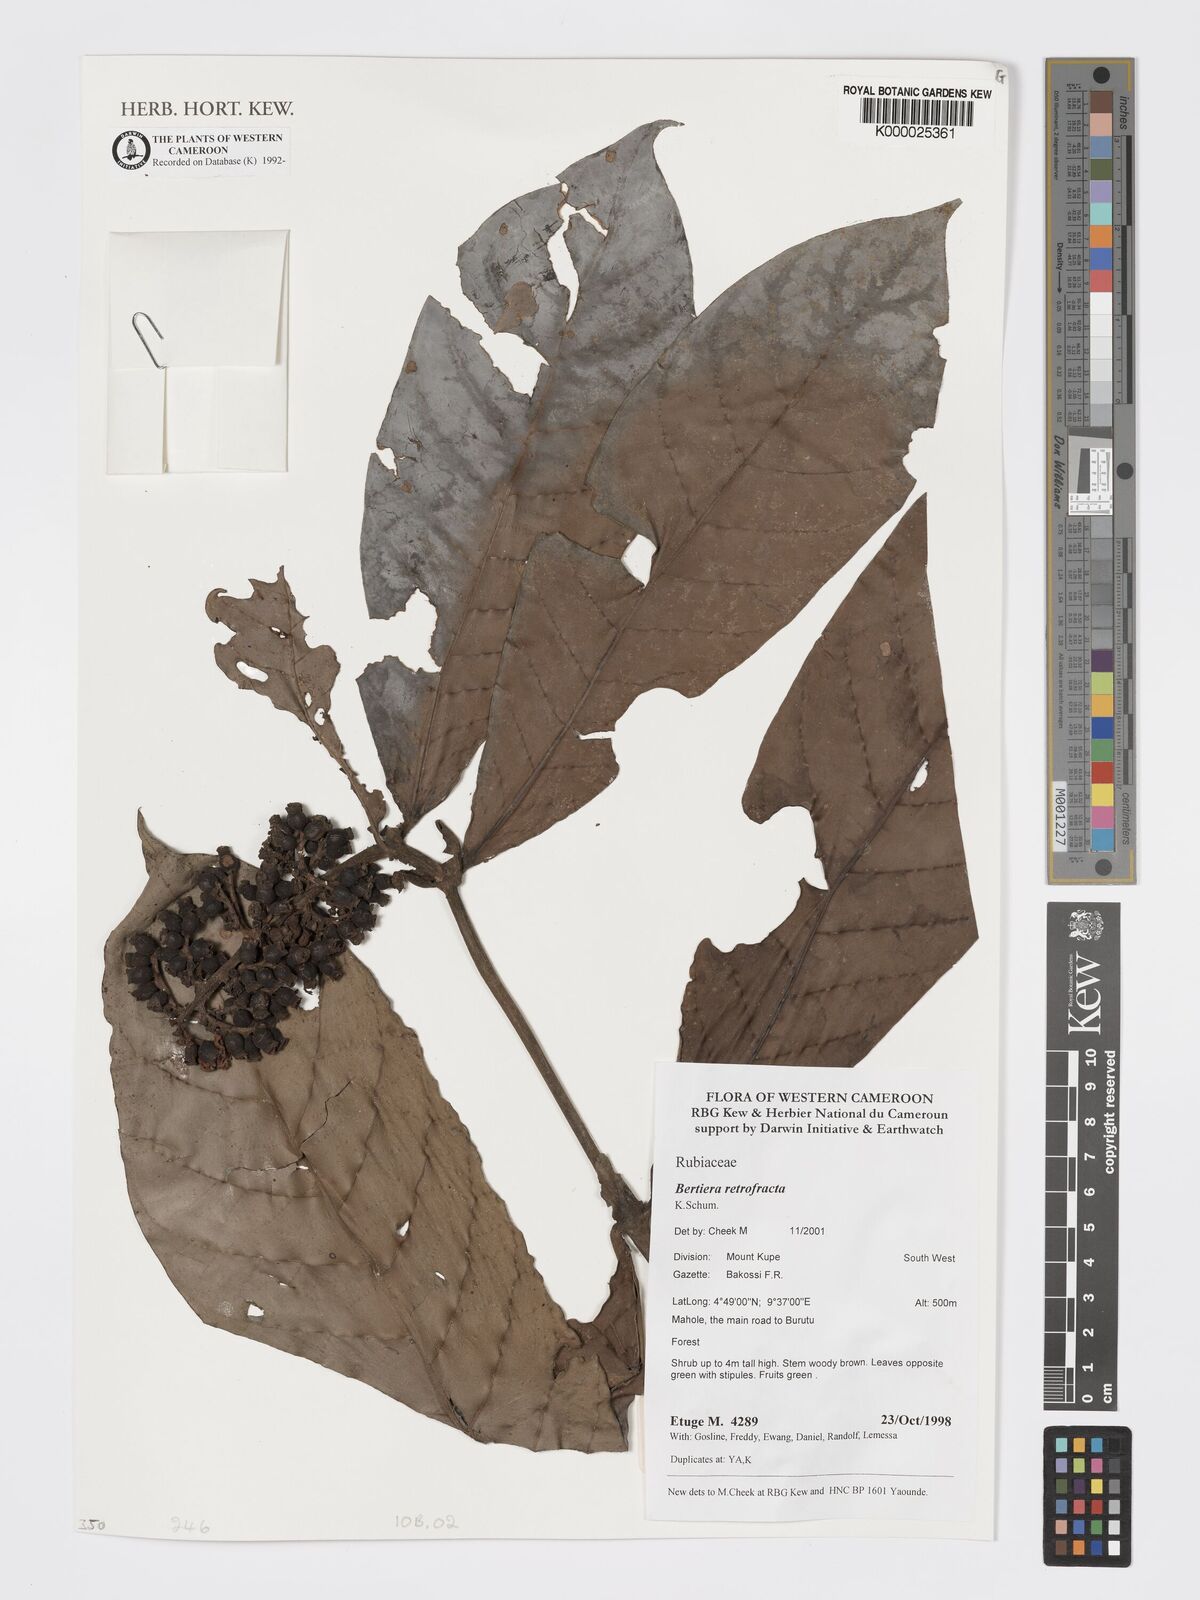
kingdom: Plantae
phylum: Tracheophyta
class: Magnoliopsida
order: Gentianales
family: Rubiaceae
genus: Bertiera
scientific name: Bertiera retrofracta
